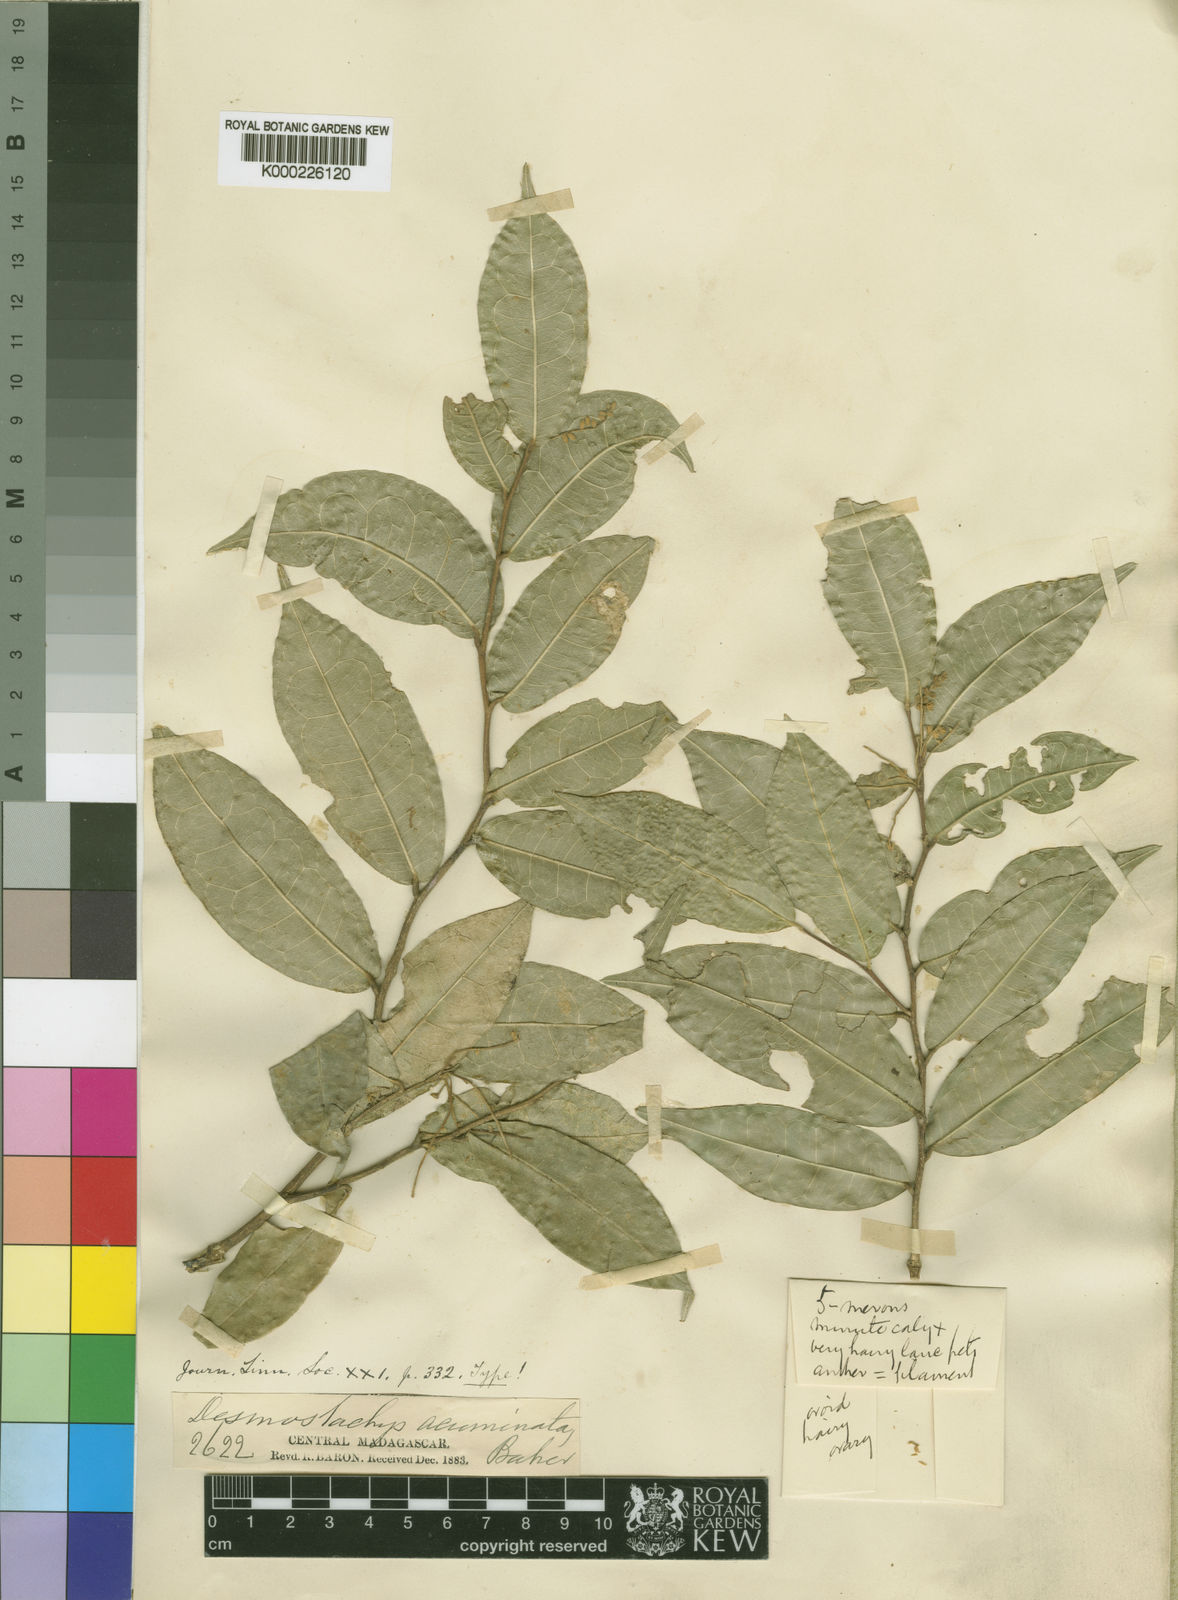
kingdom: Plantae
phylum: Tracheophyta
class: Magnoliopsida
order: Icacinales
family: Icacinaceae
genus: Desmostachys
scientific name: Desmostachys planchonianus
